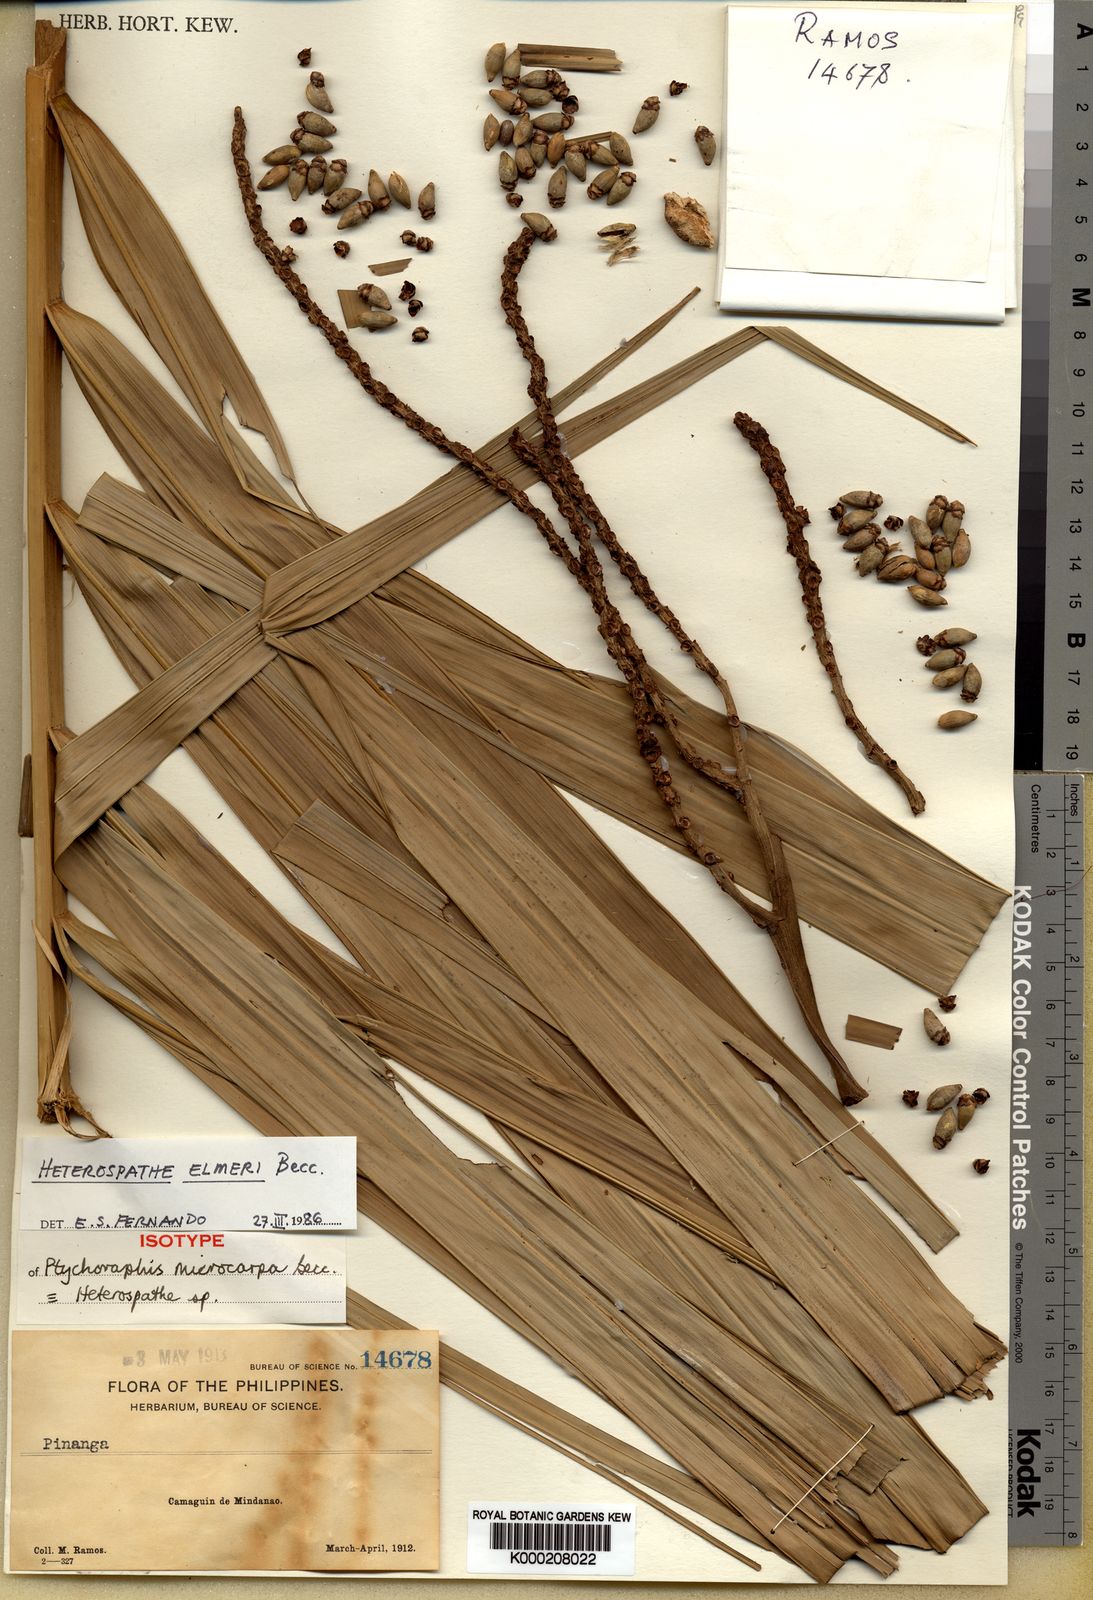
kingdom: Plantae
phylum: Tracheophyta
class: Liliopsida
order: Arecales
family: Arecaceae
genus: Heterospathe
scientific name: Heterospathe elmeri
